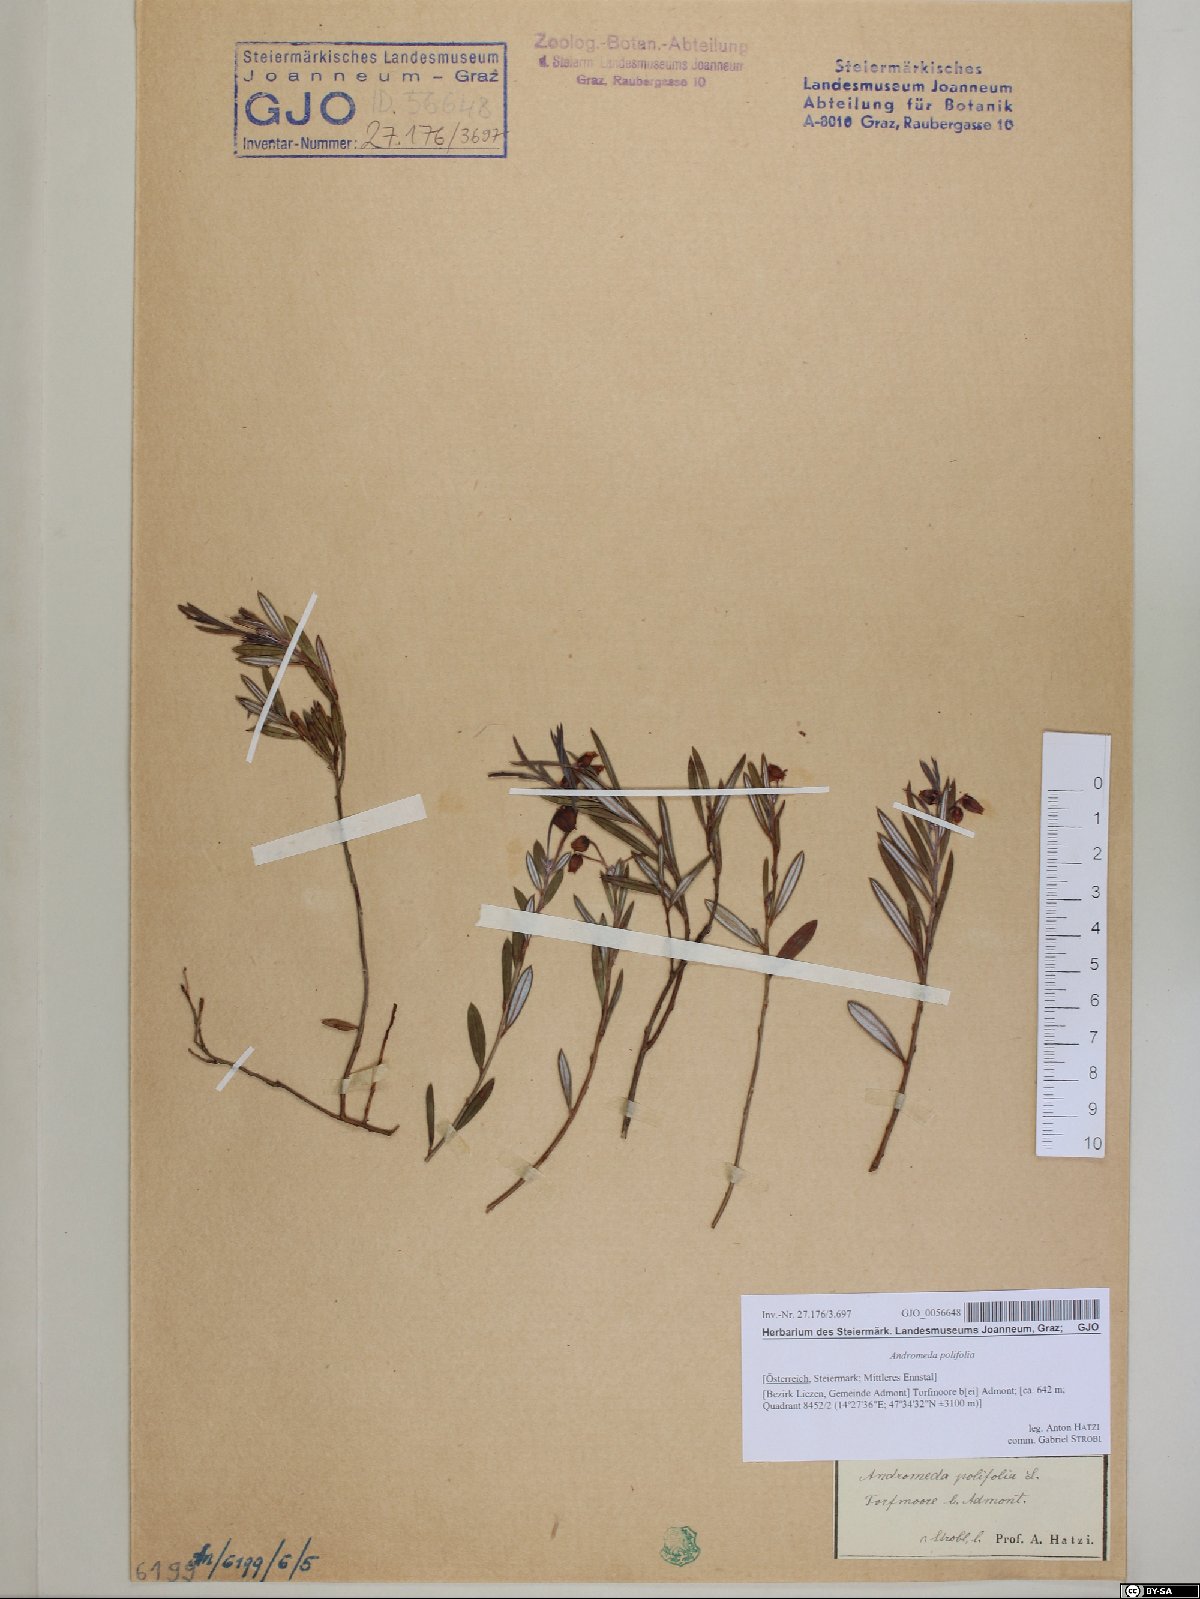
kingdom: Plantae
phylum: Tracheophyta
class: Magnoliopsida
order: Ericales
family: Ericaceae
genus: Andromeda
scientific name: Andromeda polifolia
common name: Bog-rosemary
